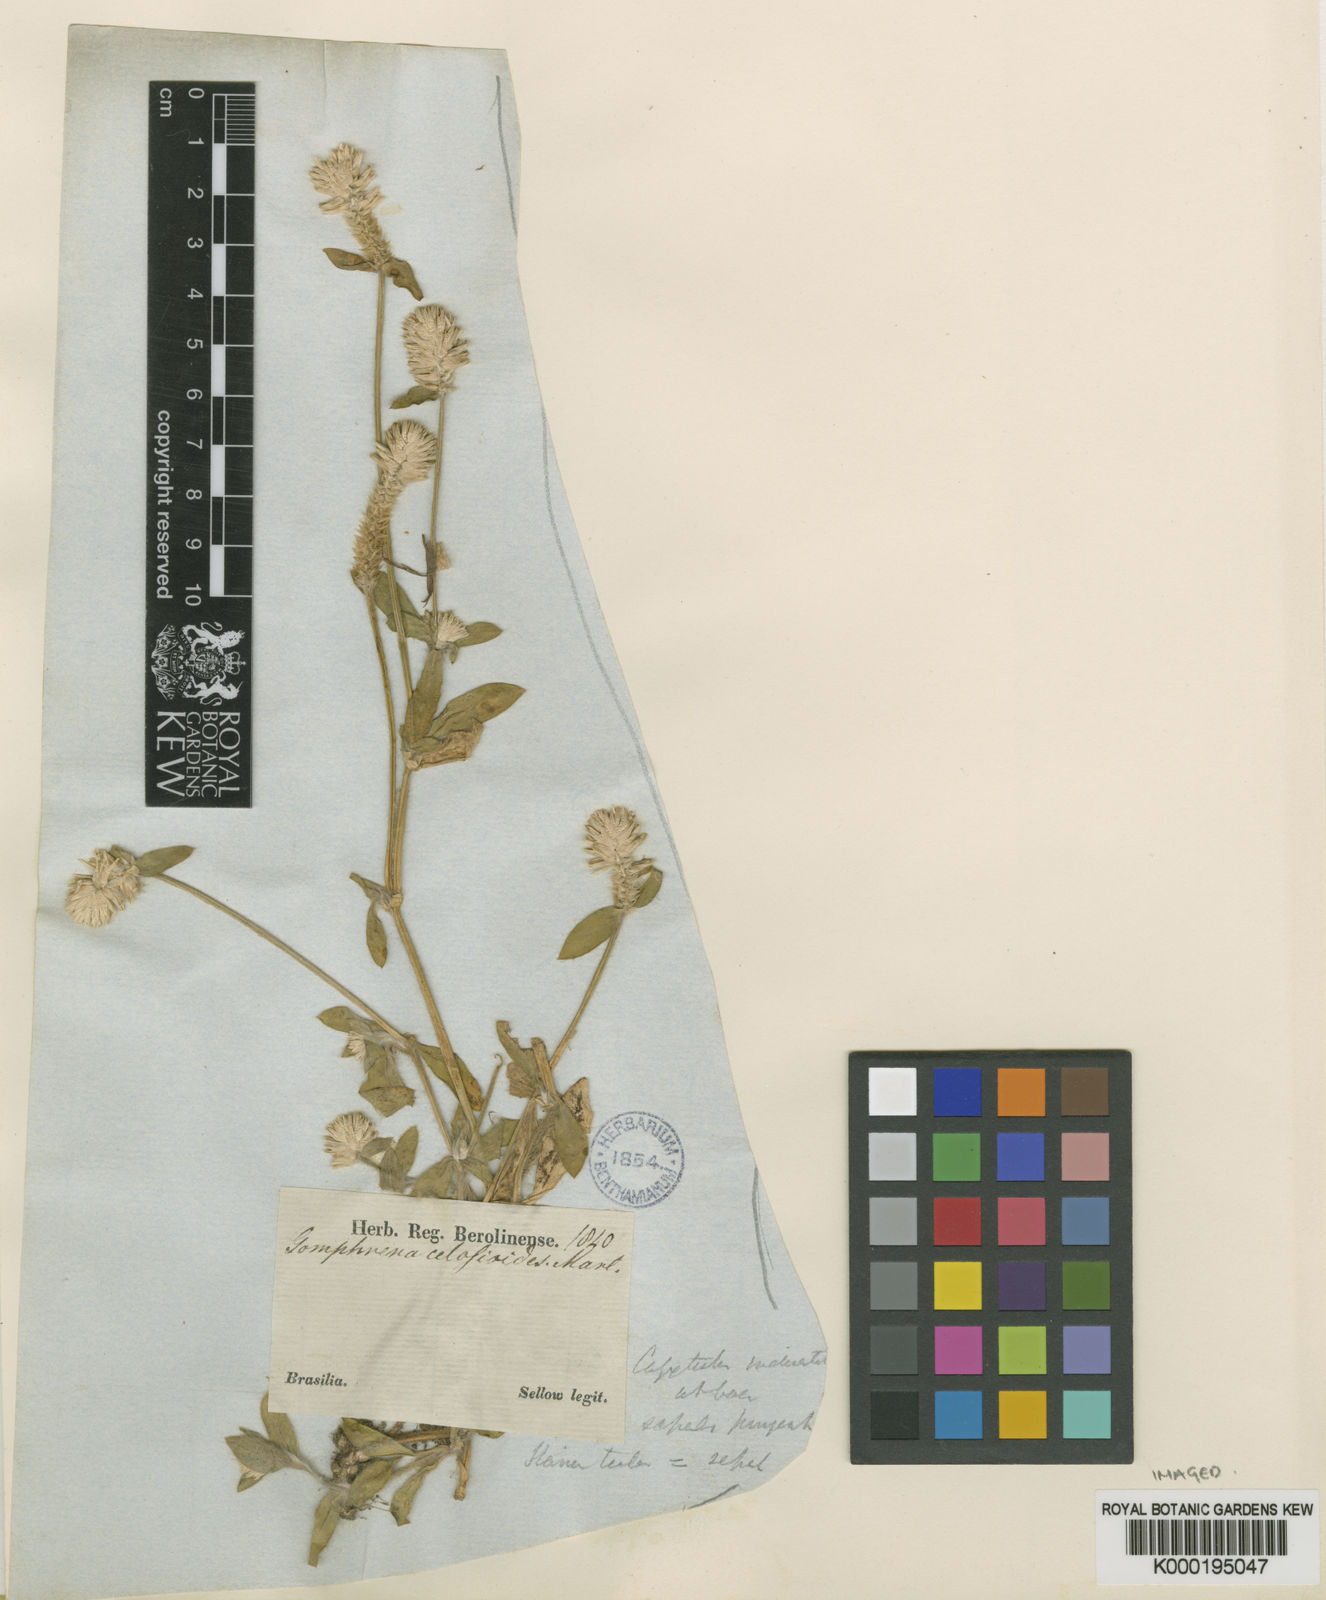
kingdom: Plantae
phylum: Tracheophyta
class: Magnoliopsida
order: Caryophyllales
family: Amaranthaceae
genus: Gomphrena
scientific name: Gomphrena celosioides
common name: Gomphrena-weed
